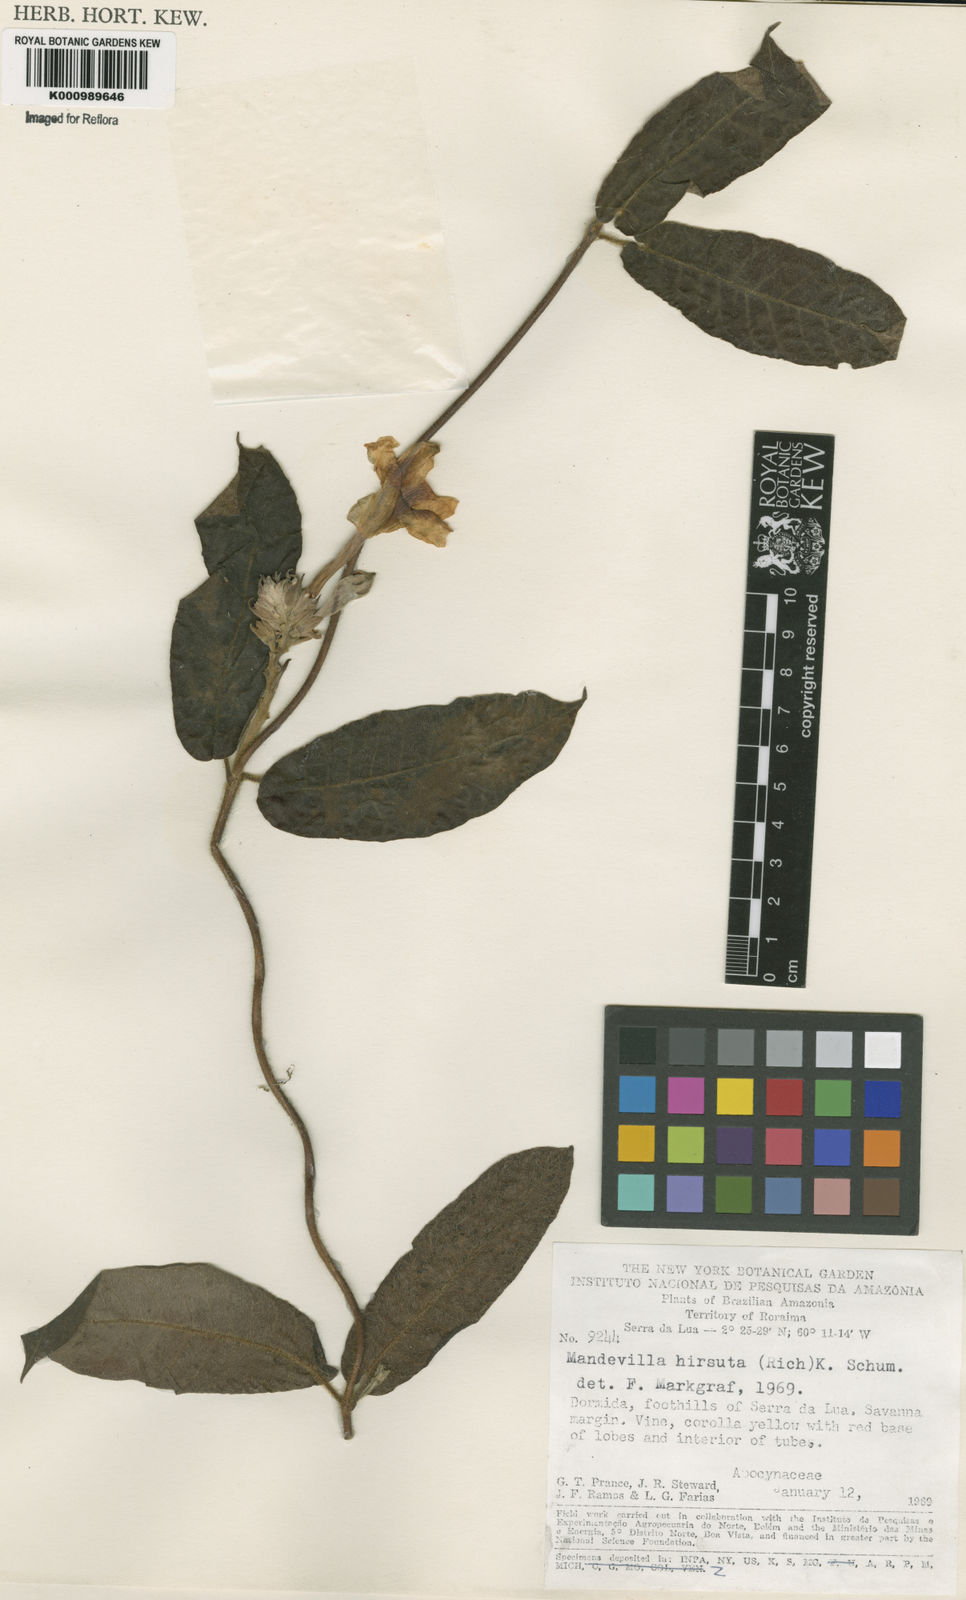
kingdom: Plantae
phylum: Tracheophyta
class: Magnoliopsida
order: Gentianales
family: Apocynaceae
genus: Mandevilla
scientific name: Mandevilla hirsuta
